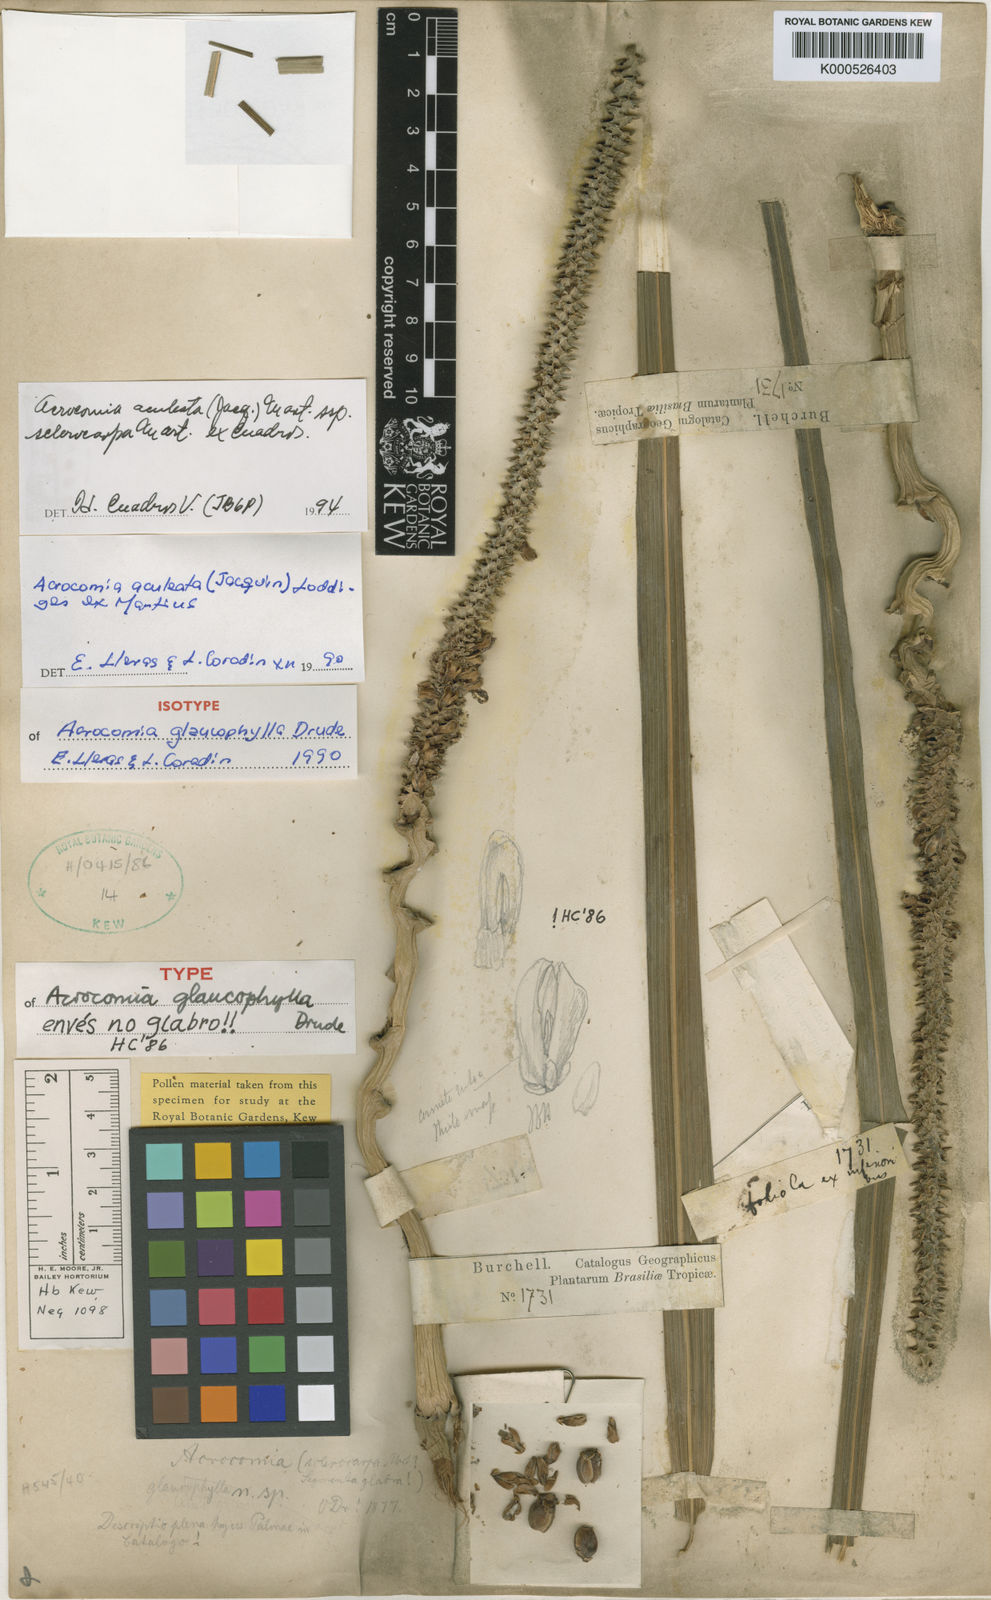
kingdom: Plantae
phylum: Tracheophyta
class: Liliopsida
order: Arecales
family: Arecaceae
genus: Acrocomia
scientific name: Acrocomia aculeata
